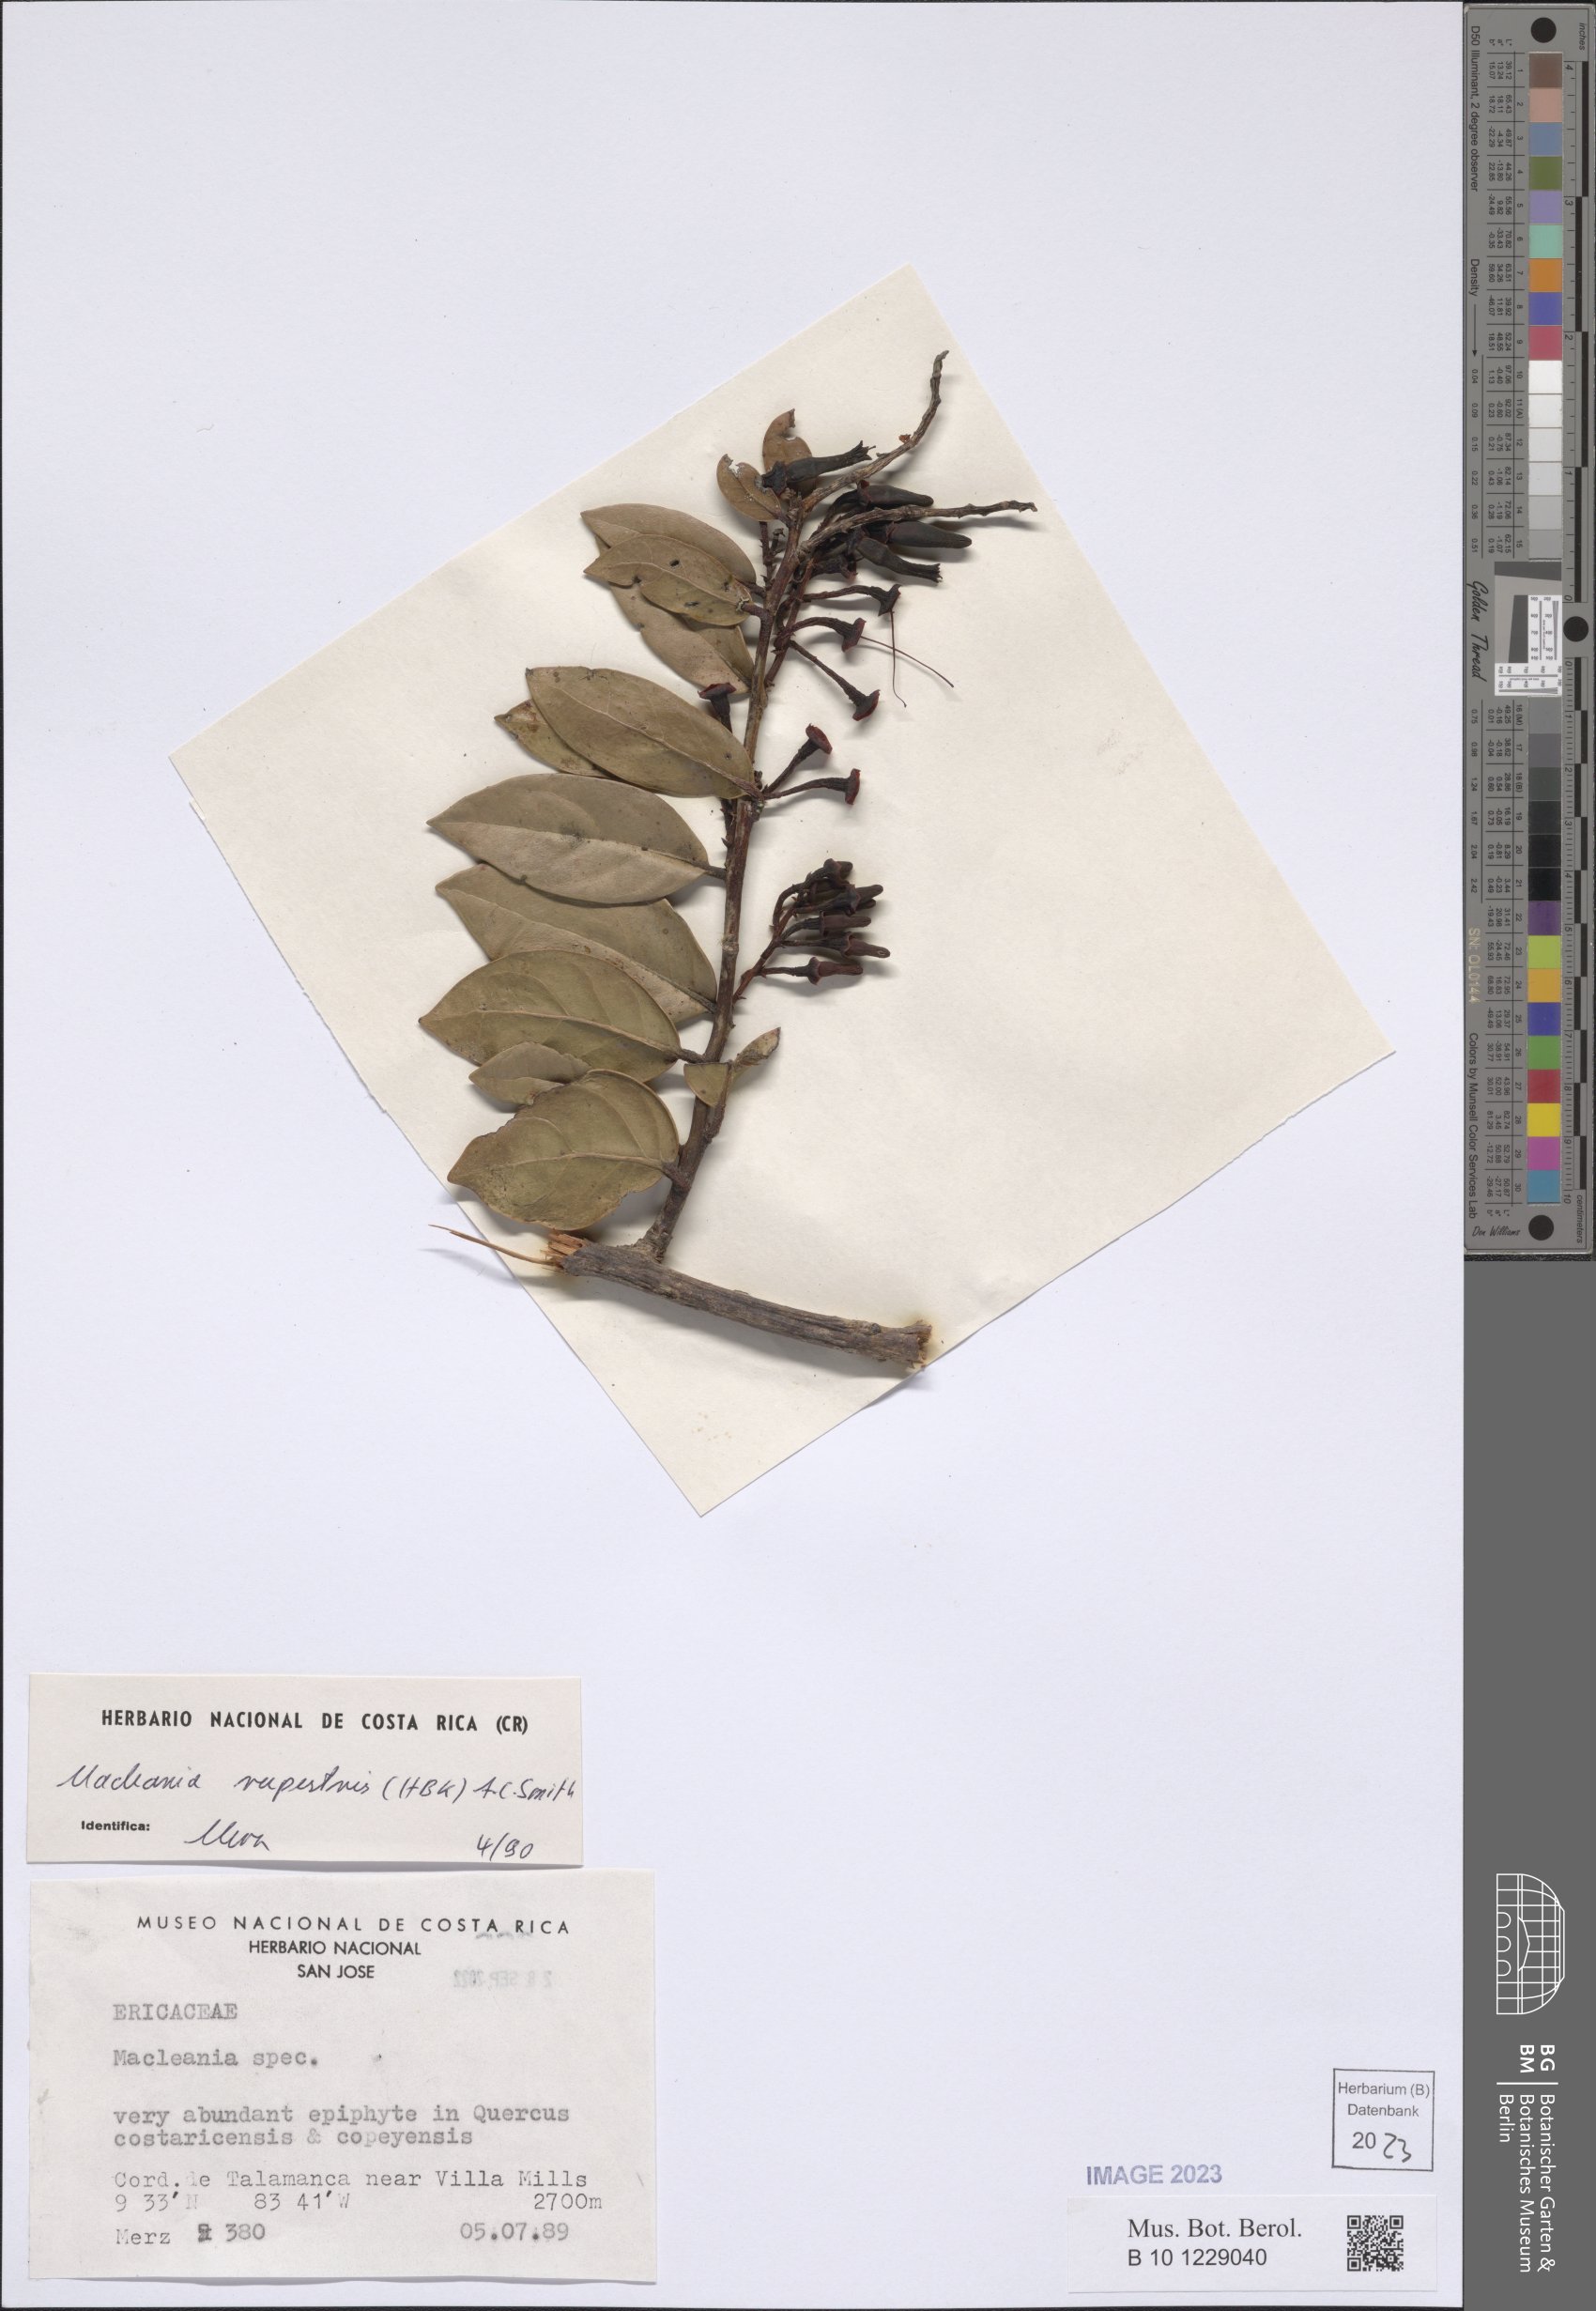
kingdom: Plantae
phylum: Tracheophyta
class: Magnoliopsida
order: Ericales
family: Ericaceae
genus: Macleania
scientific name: Macleania rupestris
